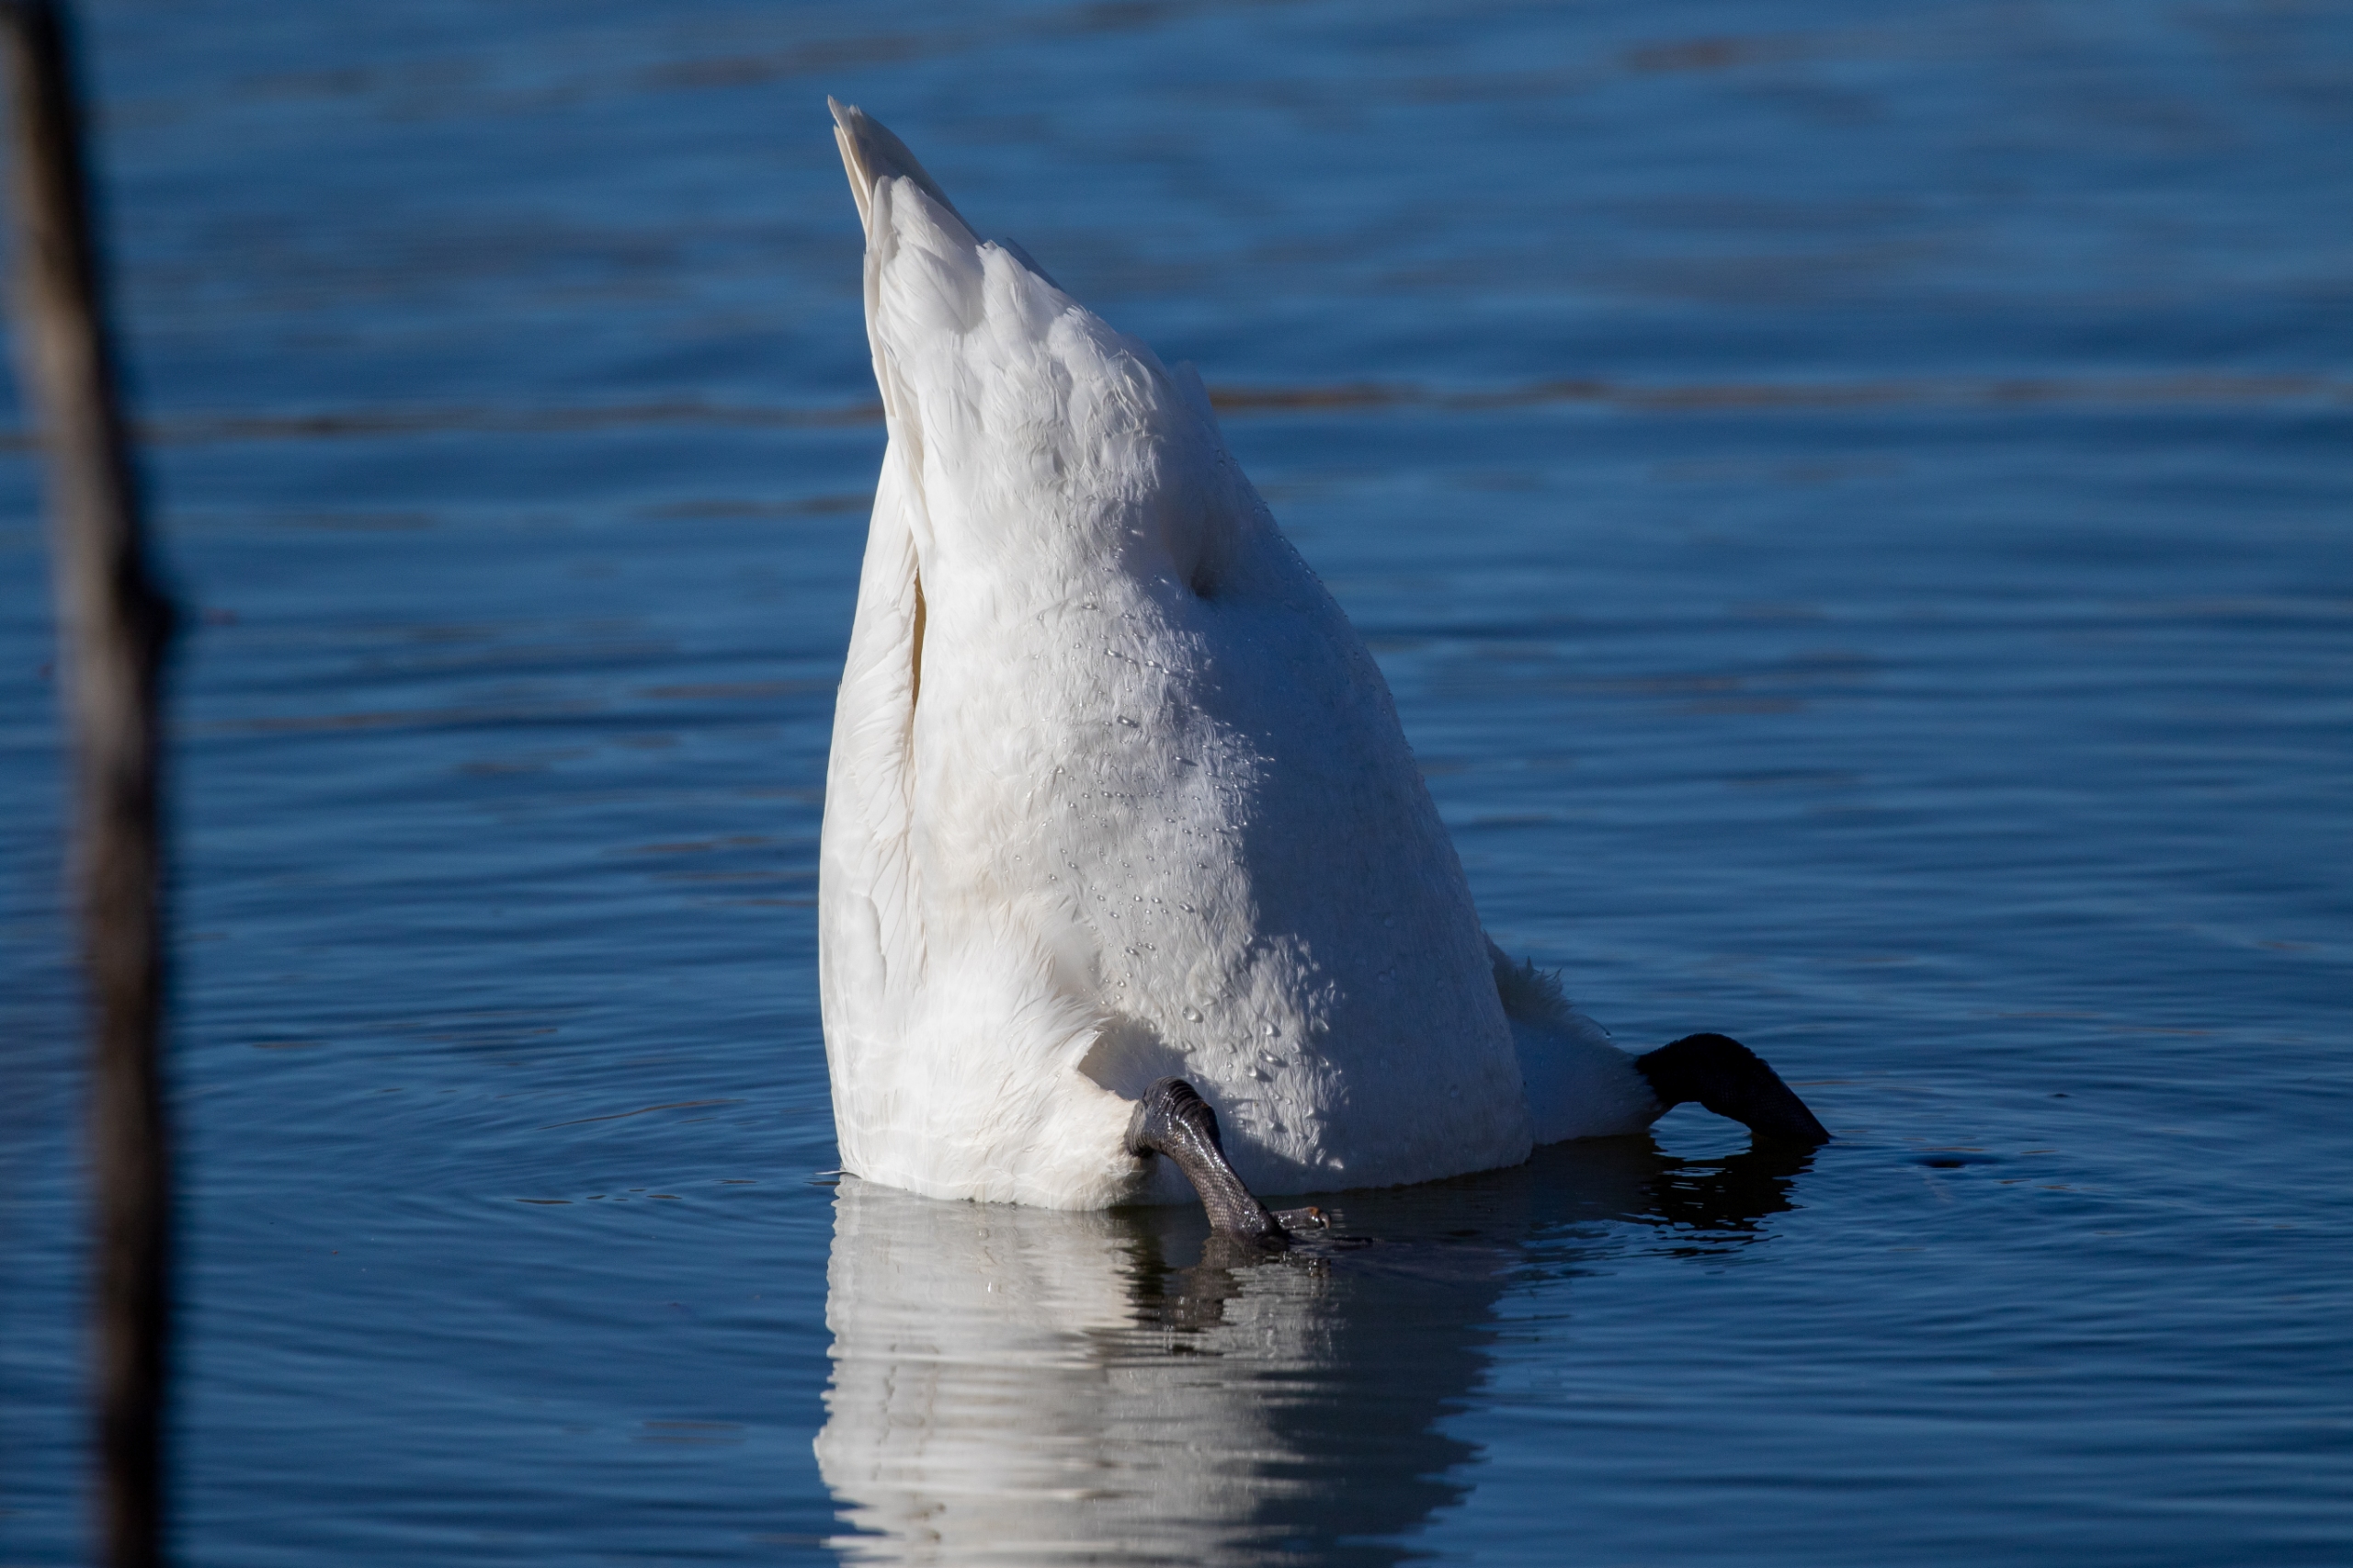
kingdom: Animalia
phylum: Chordata
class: Aves
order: Anseriformes
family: Anatidae
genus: Cygnus
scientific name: Cygnus olor
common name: Knopsvane
